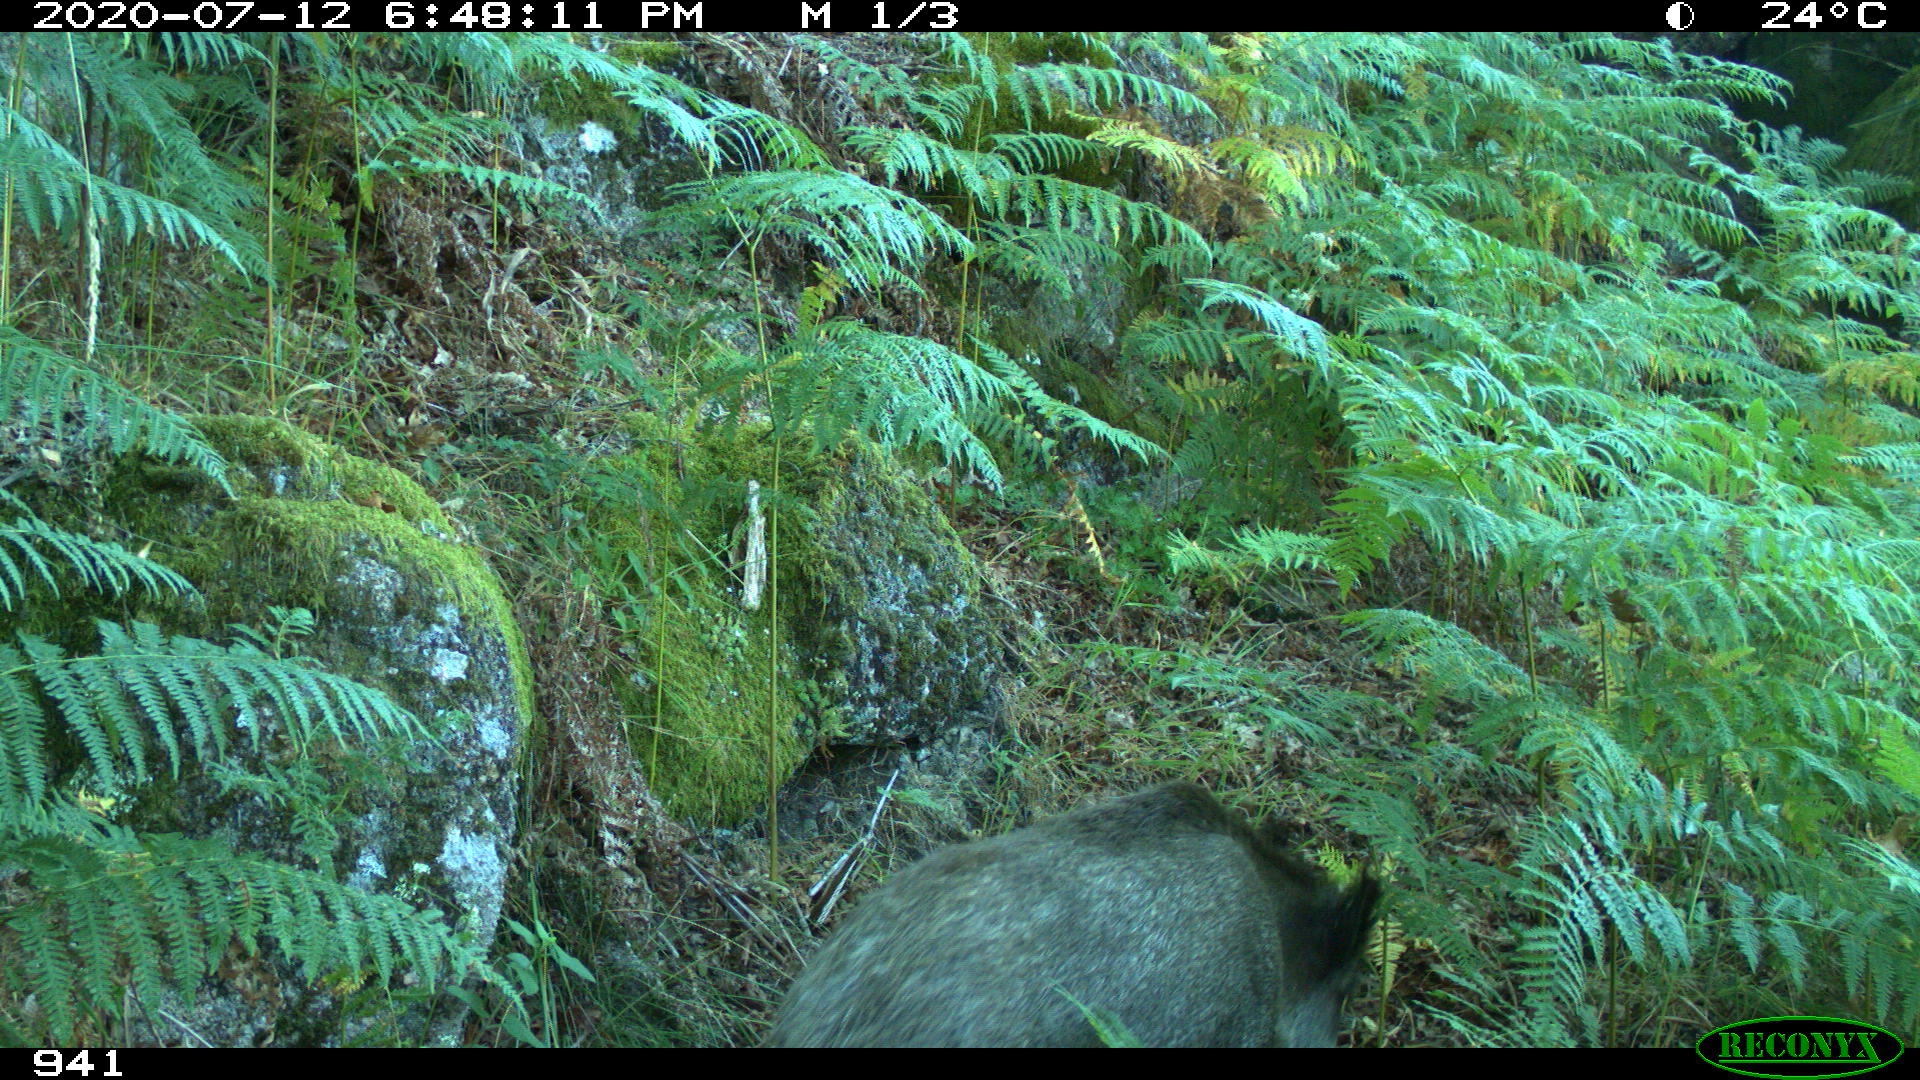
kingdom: Animalia
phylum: Chordata
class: Mammalia
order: Artiodactyla
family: Suidae
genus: Sus
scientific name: Sus scrofa
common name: Wild boar
